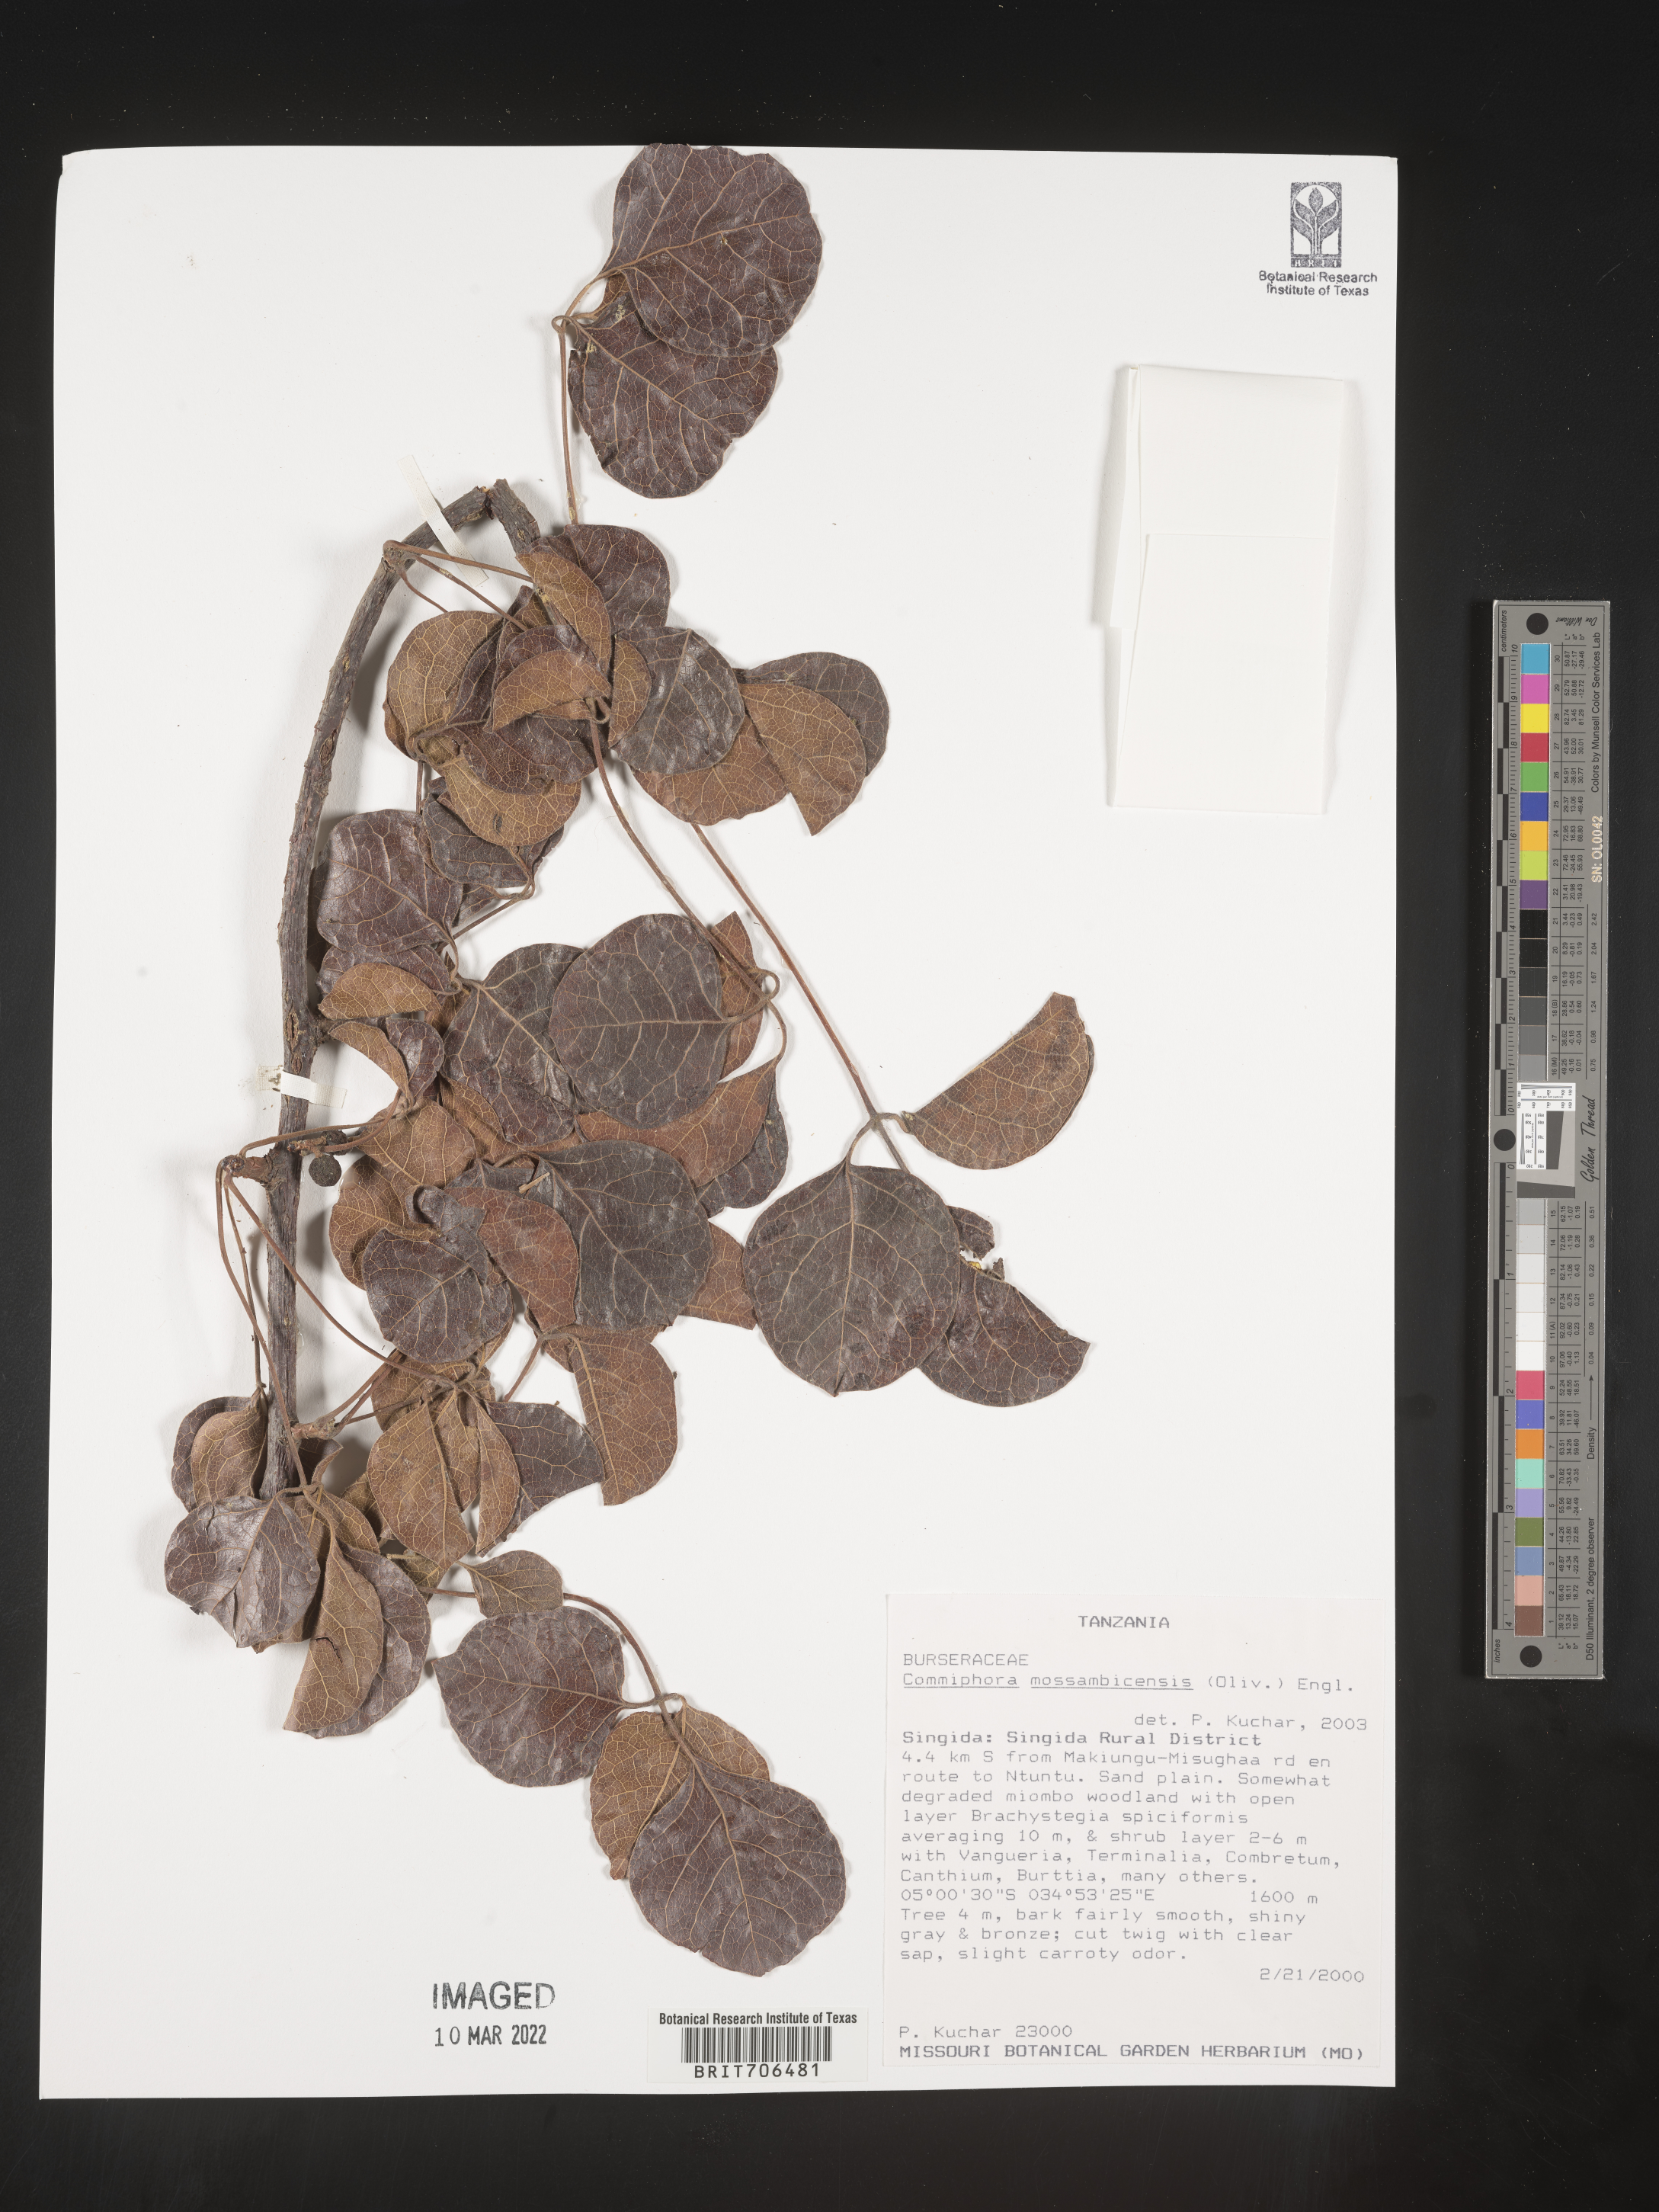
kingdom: Plantae
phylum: Tracheophyta
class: Magnoliopsida
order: Sapindales
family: Burseraceae
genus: Commiphora
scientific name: Commiphora
